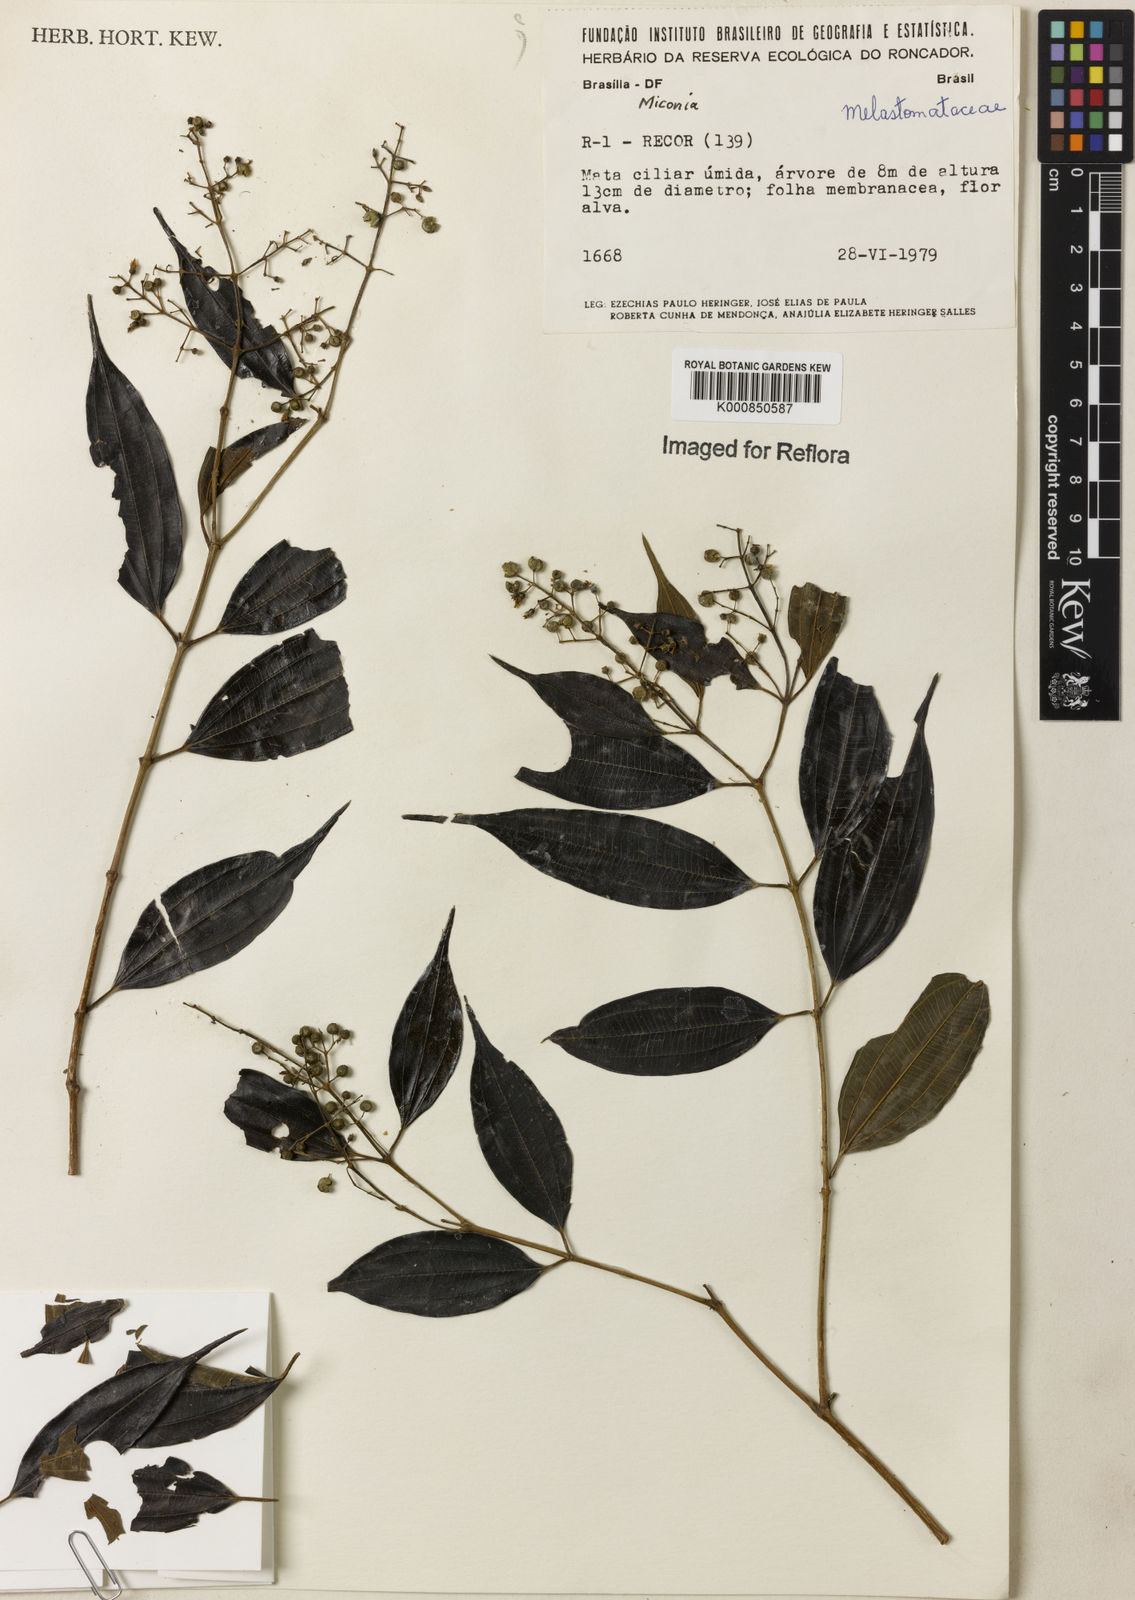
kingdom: Plantae
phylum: Tracheophyta
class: Magnoliopsida
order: Myrtales
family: Melastomataceae
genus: Miconia
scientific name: Miconia
